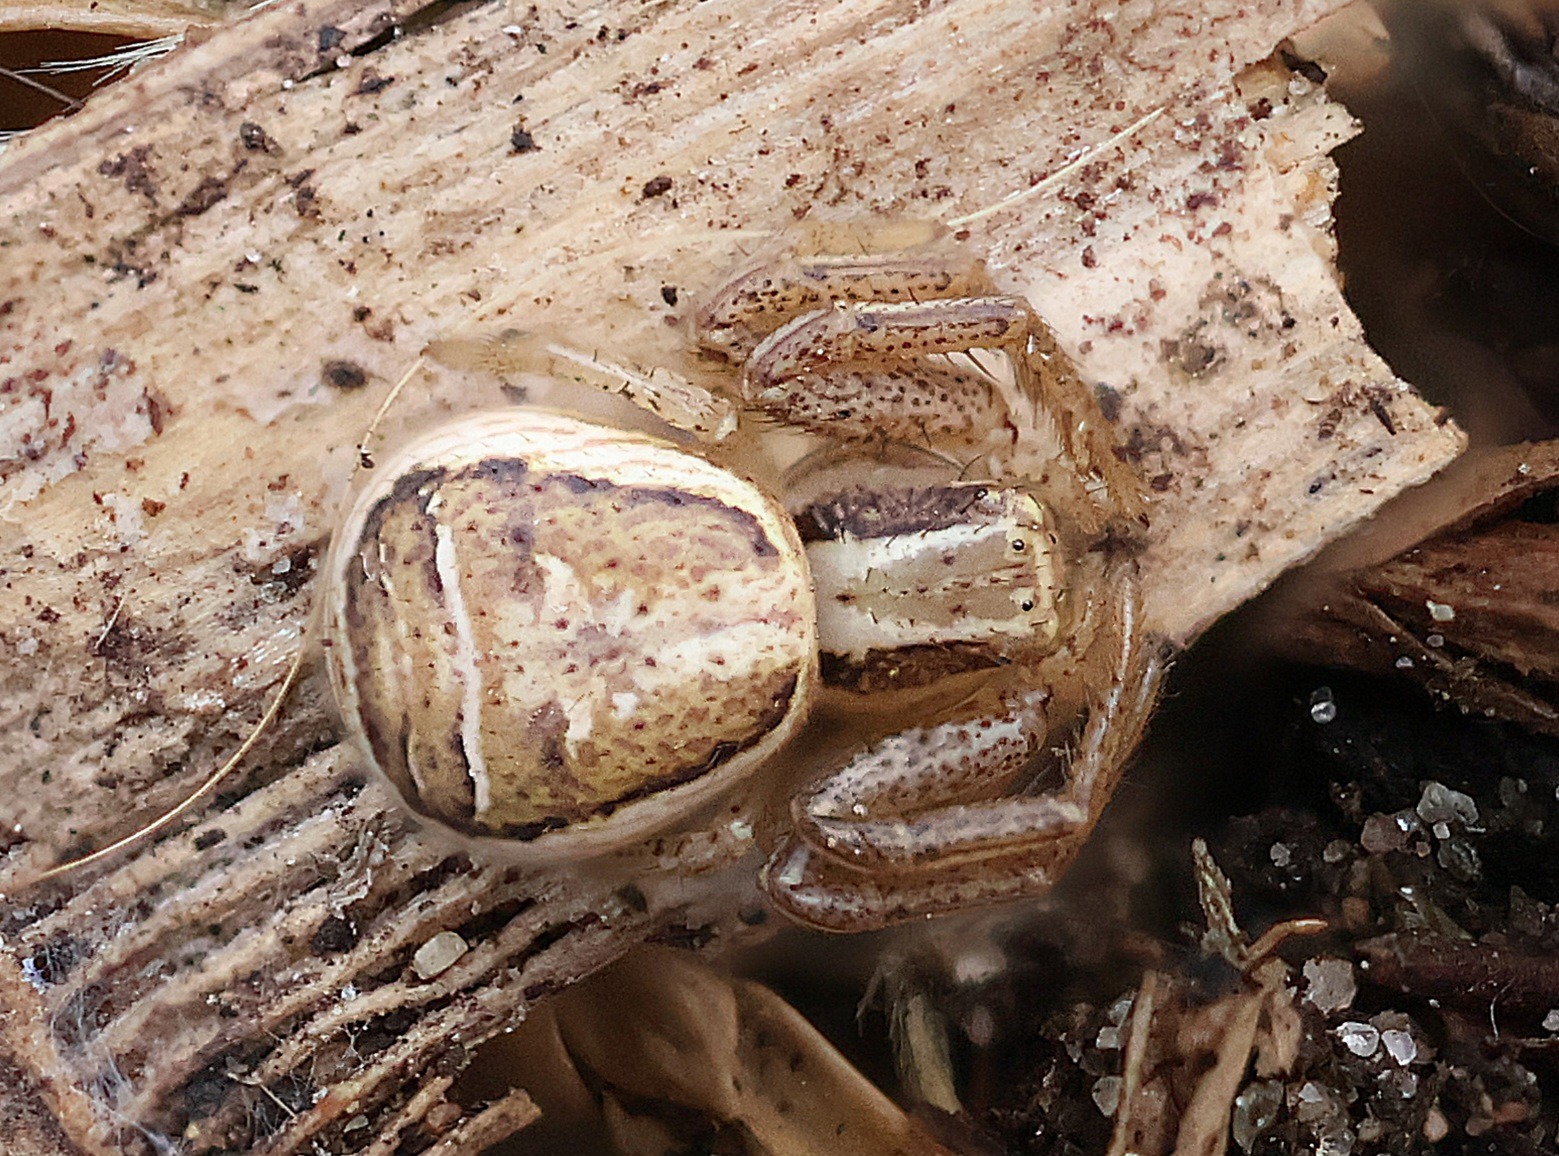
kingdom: Animalia
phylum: Arthropoda
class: Arachnida
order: Araneae
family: Thomisidae
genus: Xysticus
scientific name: Xysticus ulmi
